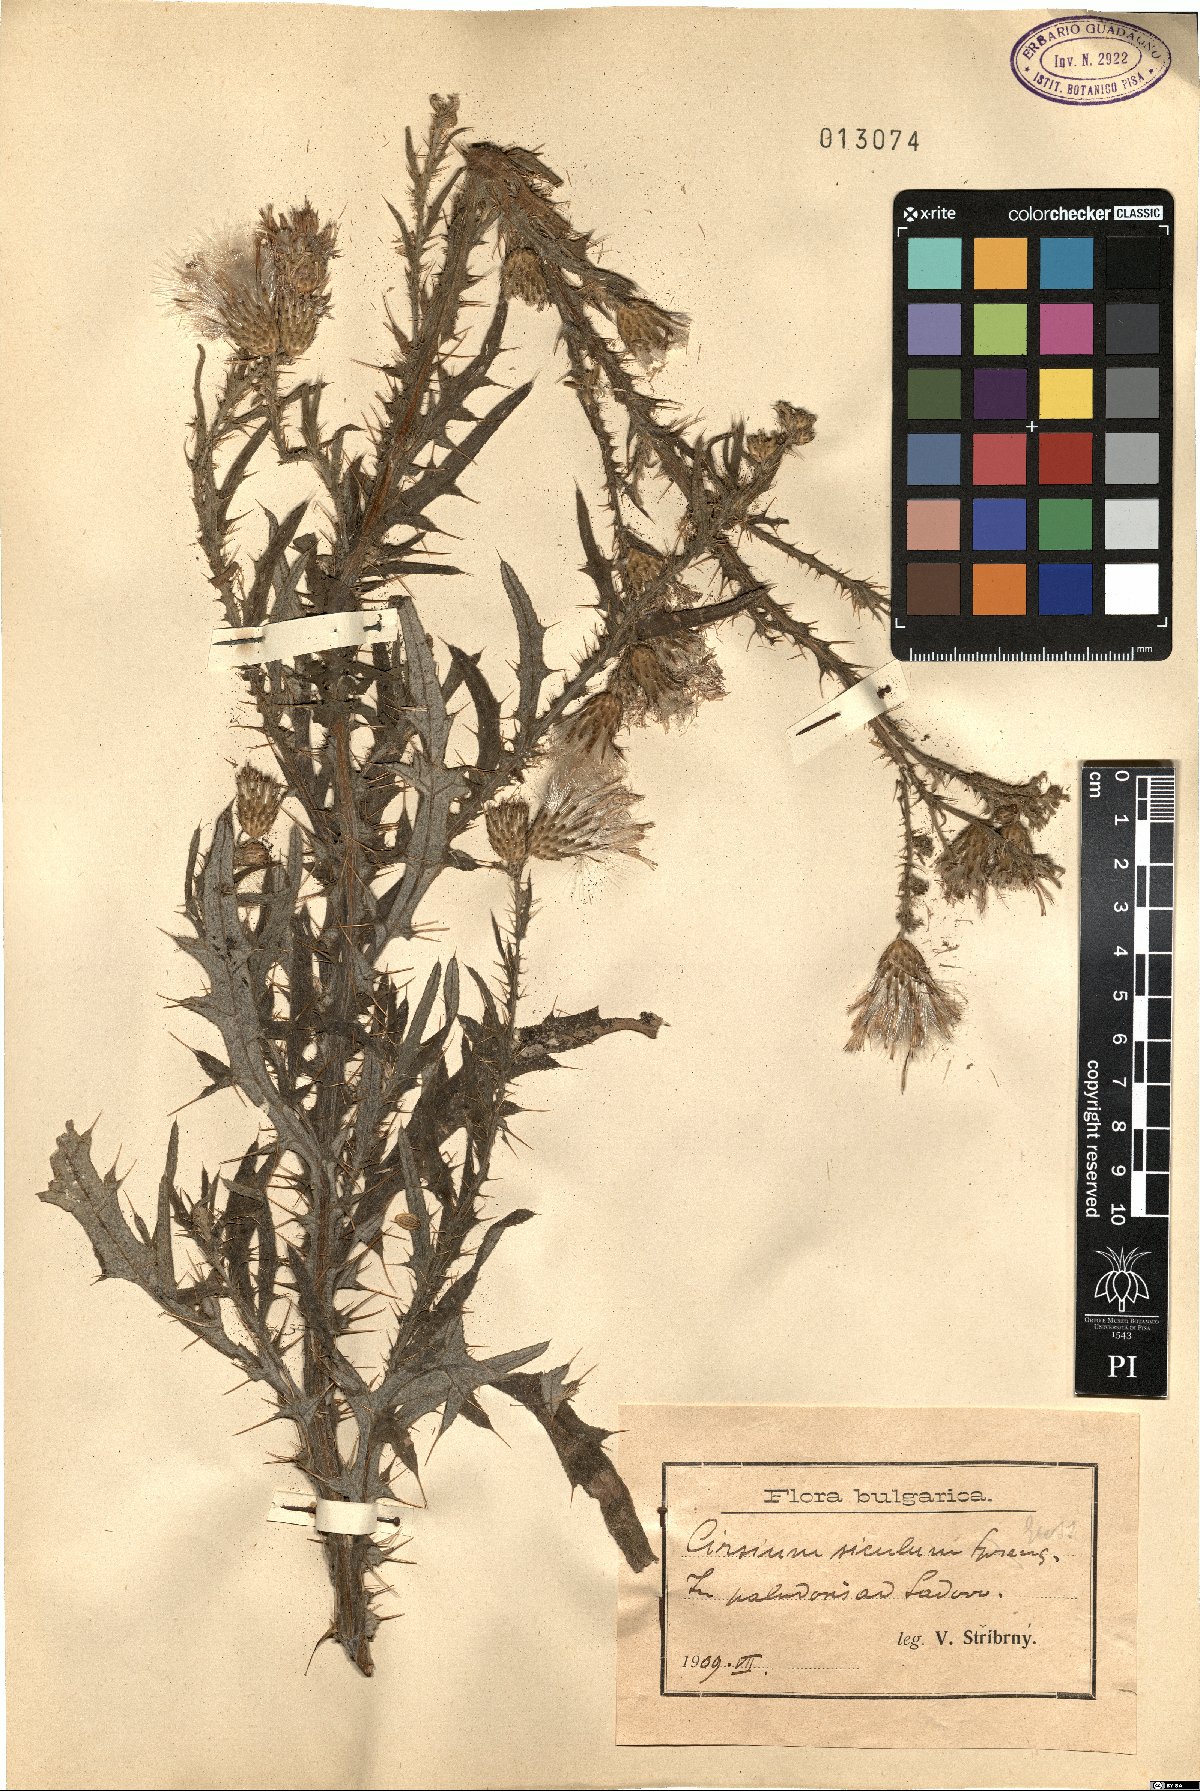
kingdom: Plantae
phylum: Tracheophyta
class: Magnoliopsida
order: Asterales
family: Asteraceae
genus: Carduus
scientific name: Carduus collinus
